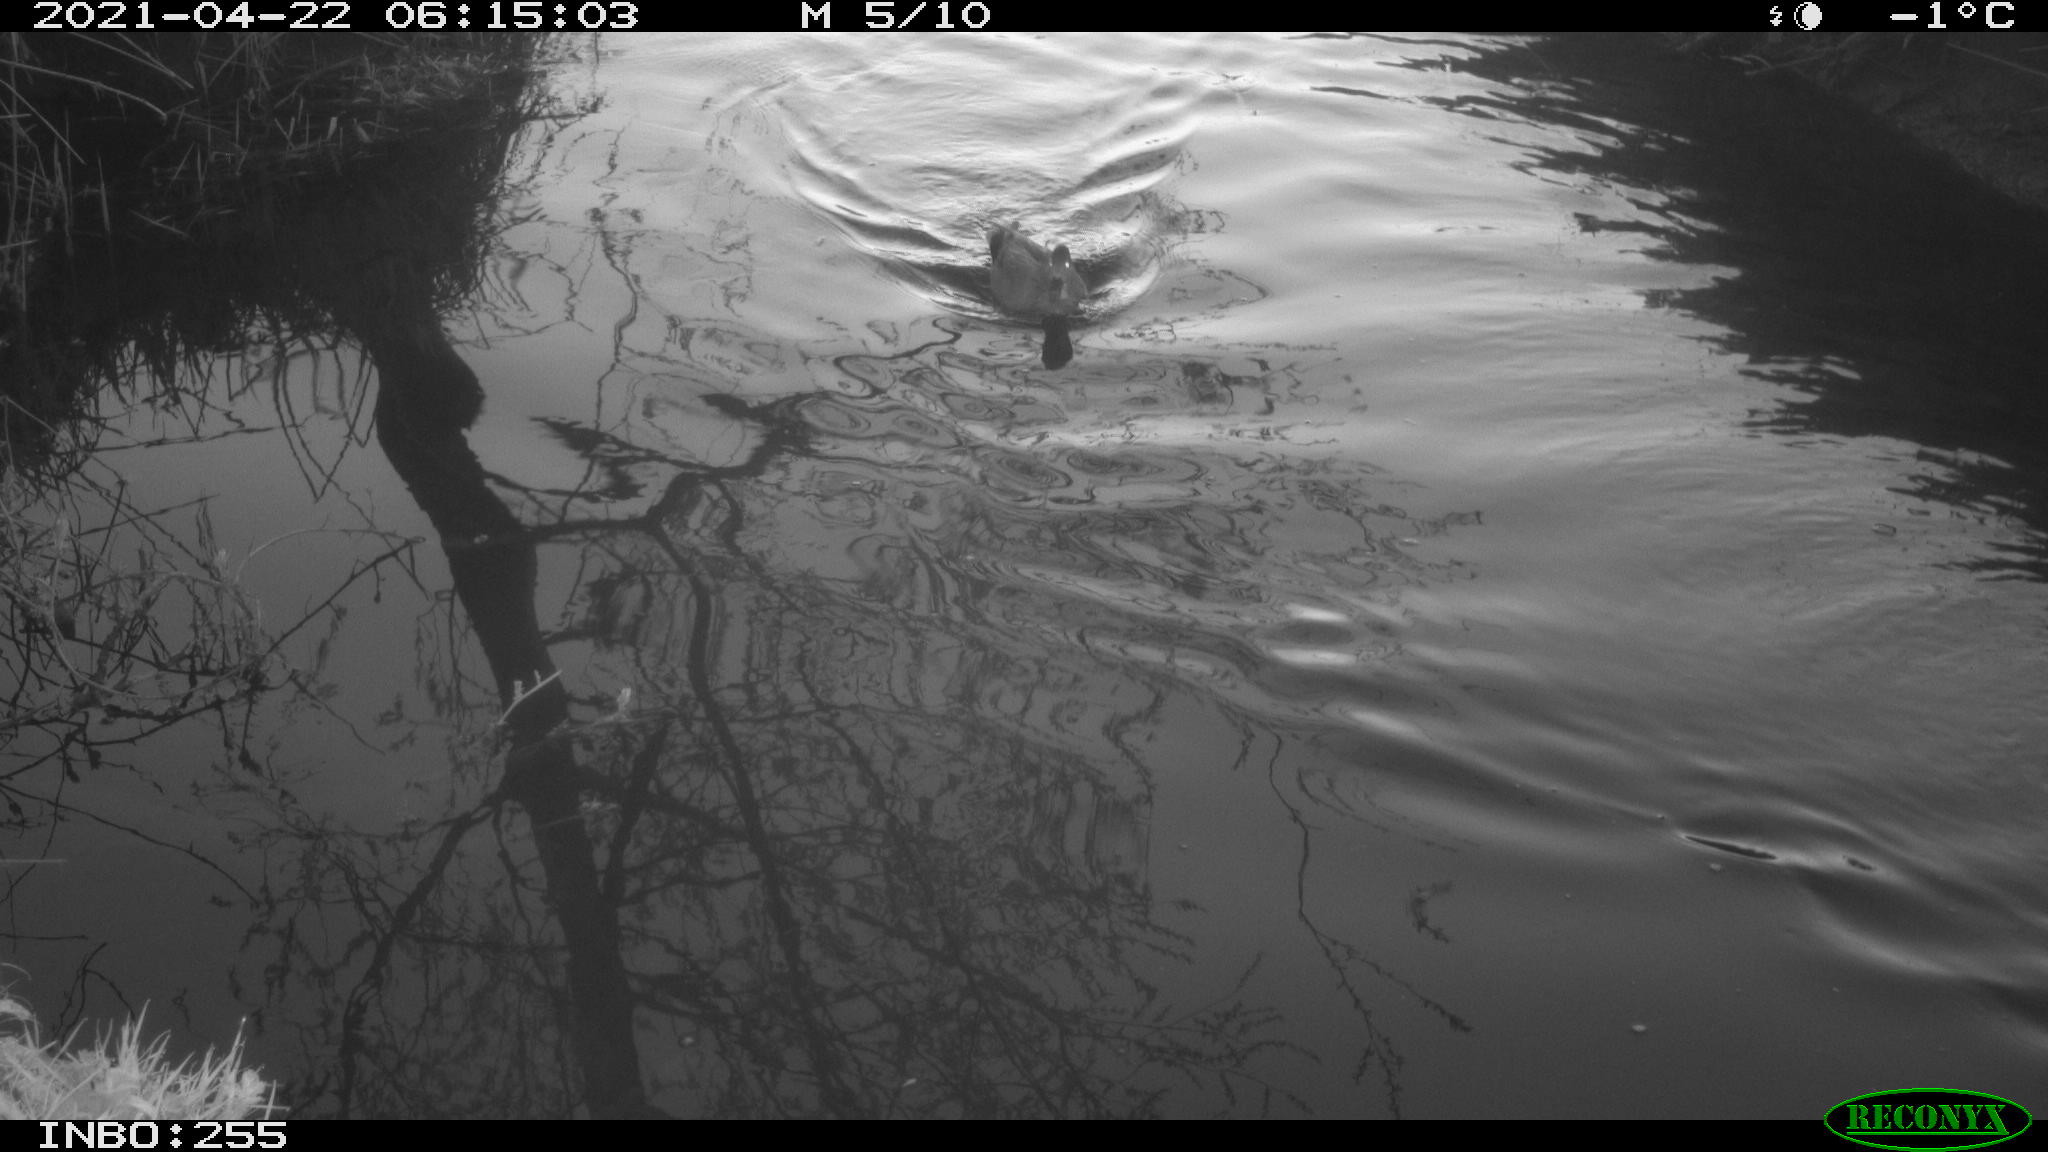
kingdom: Animalia
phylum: Chordata
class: Aves
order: Anseriformes
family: Anatidae
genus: Mareca
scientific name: Mareca strepera
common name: Gadwall
